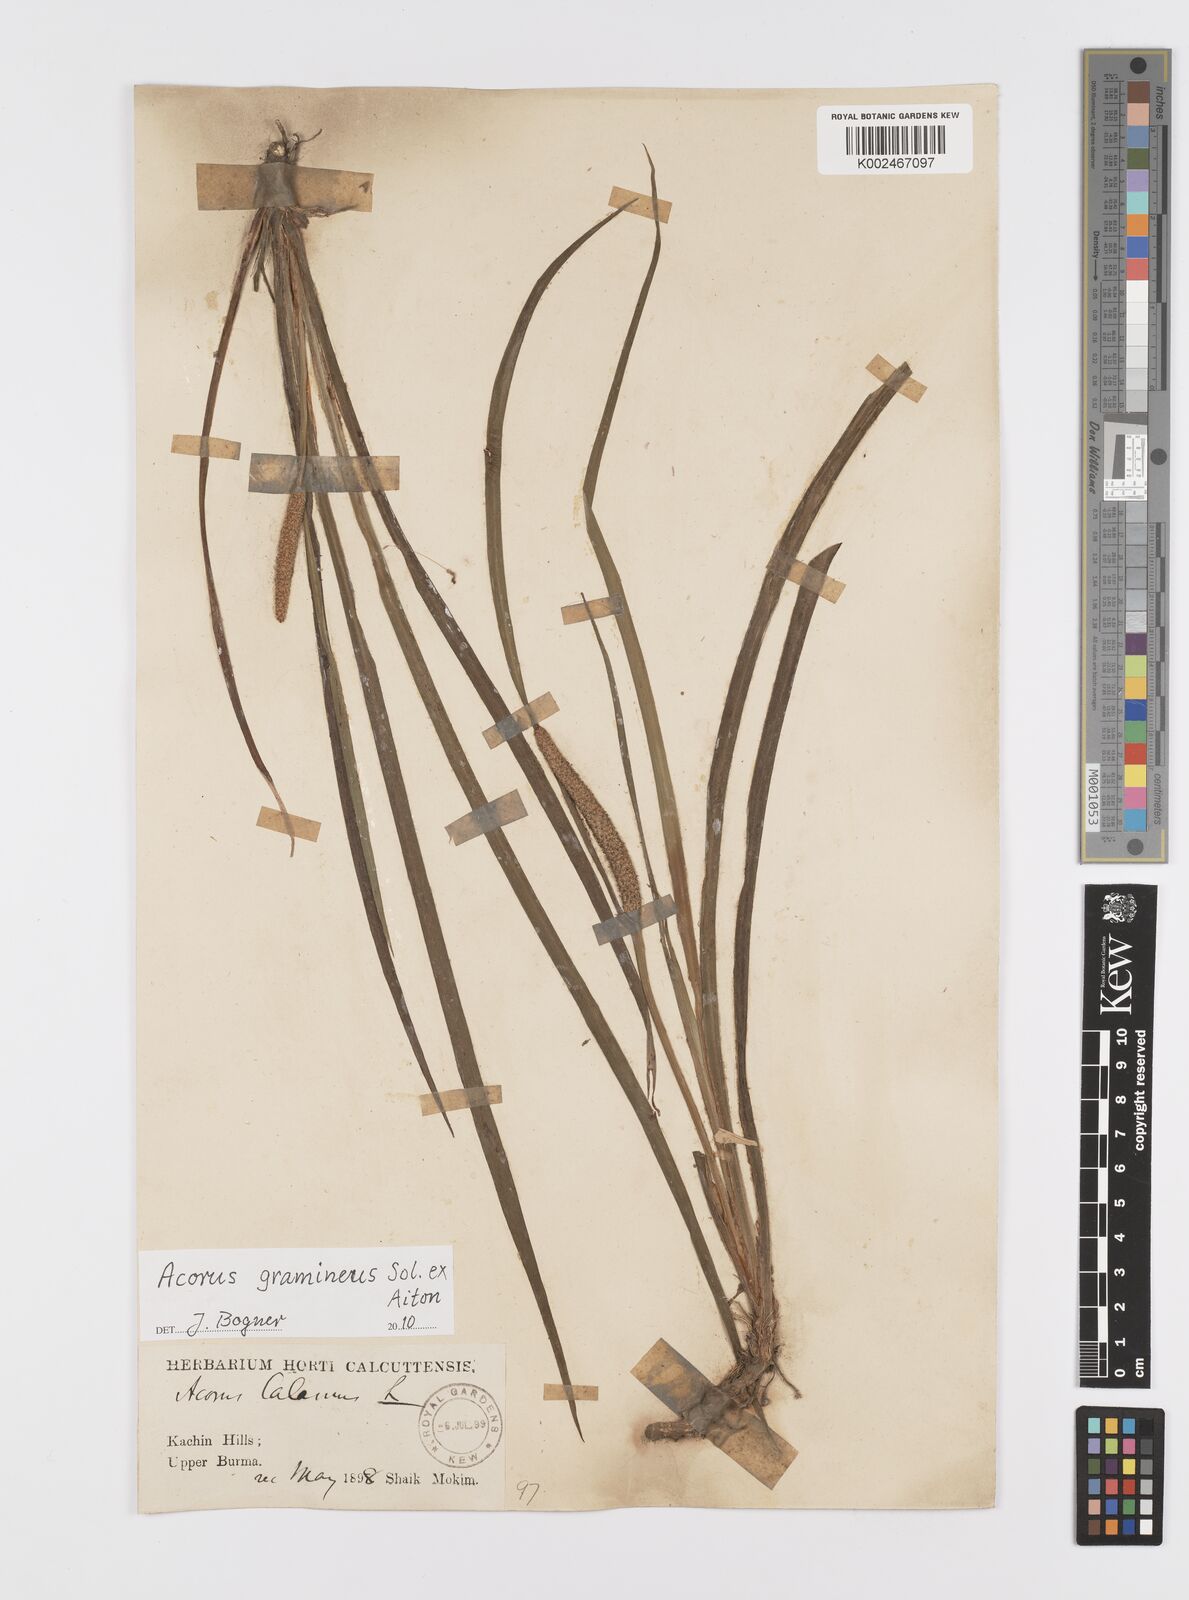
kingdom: Plantae
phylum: Tracheophyta
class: Liliopsida
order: Acorales
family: Acoraceae
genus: Acorus
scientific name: Acorus gramineus
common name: Slender sweet-flag
